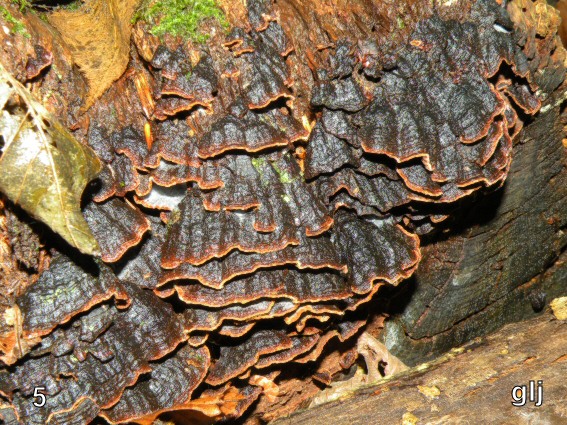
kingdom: Fungi
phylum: Basidiomycota
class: Agaricomycetes
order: Hymenochaetales
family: Hymenochaetaceae
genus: Hymenochaete
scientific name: Hymenochaete rubiginosa
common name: stiv ruslædersvamp
